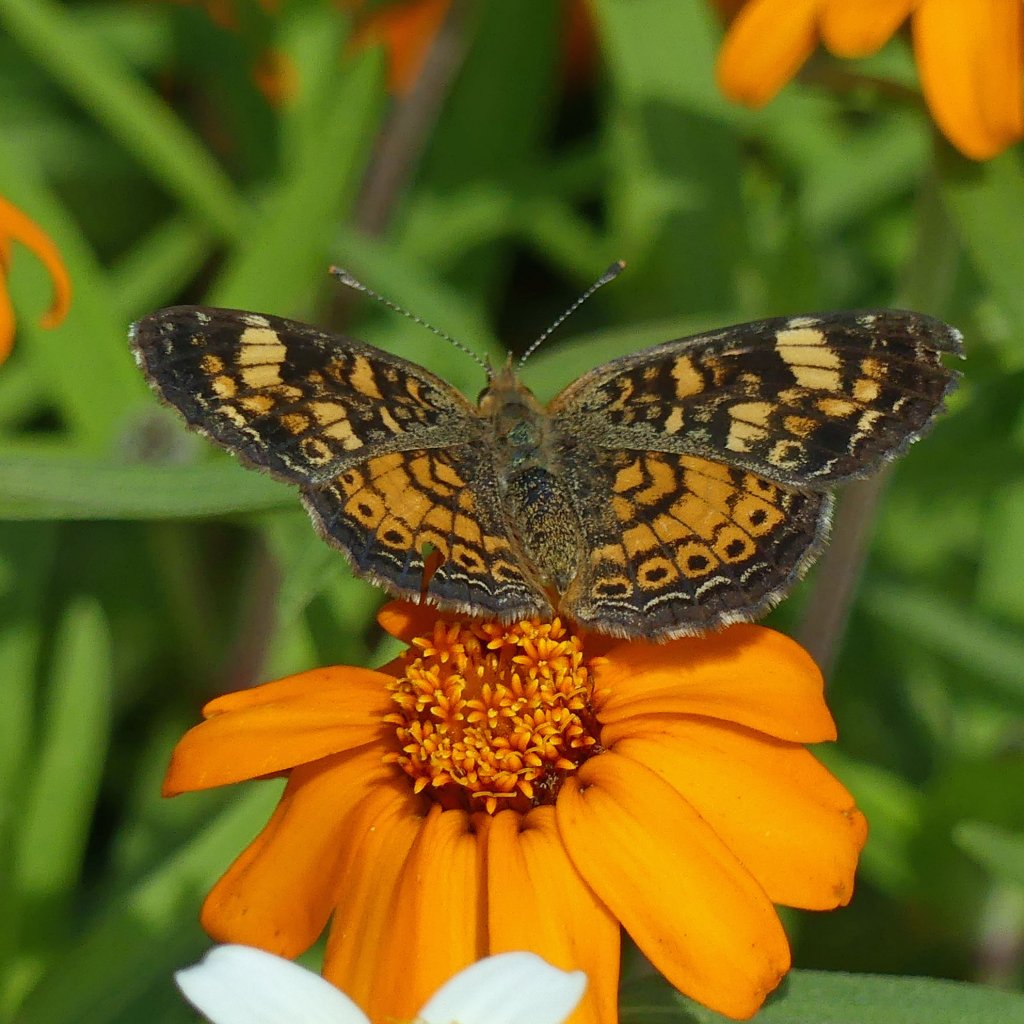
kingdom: Animalia
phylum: Arthropoda
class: Insecta
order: Lepidoptera
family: Nymphalidae
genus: Phyciodes
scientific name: Phyciodes tharos
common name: Pearl Crescent
